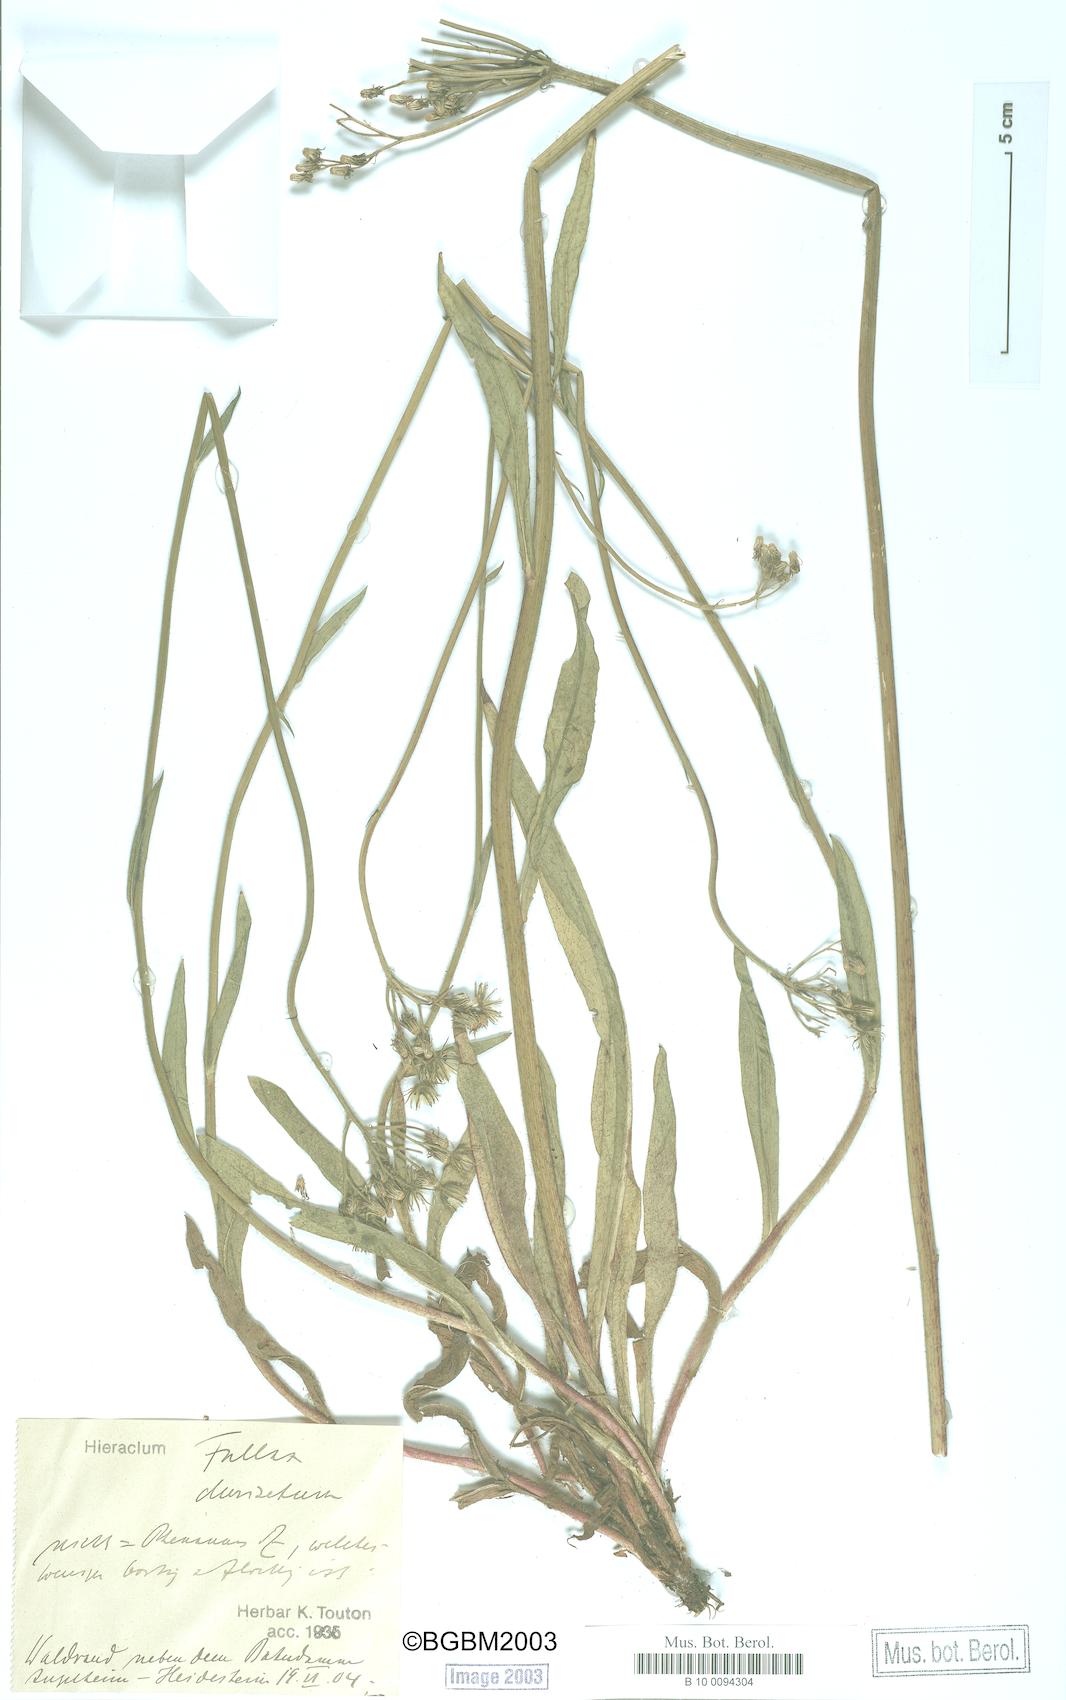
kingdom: Plantae
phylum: Tracheophyta
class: Magnoliopsida
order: Asterales
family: Asteraceae
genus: Hieracium
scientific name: Hieracium fallax
